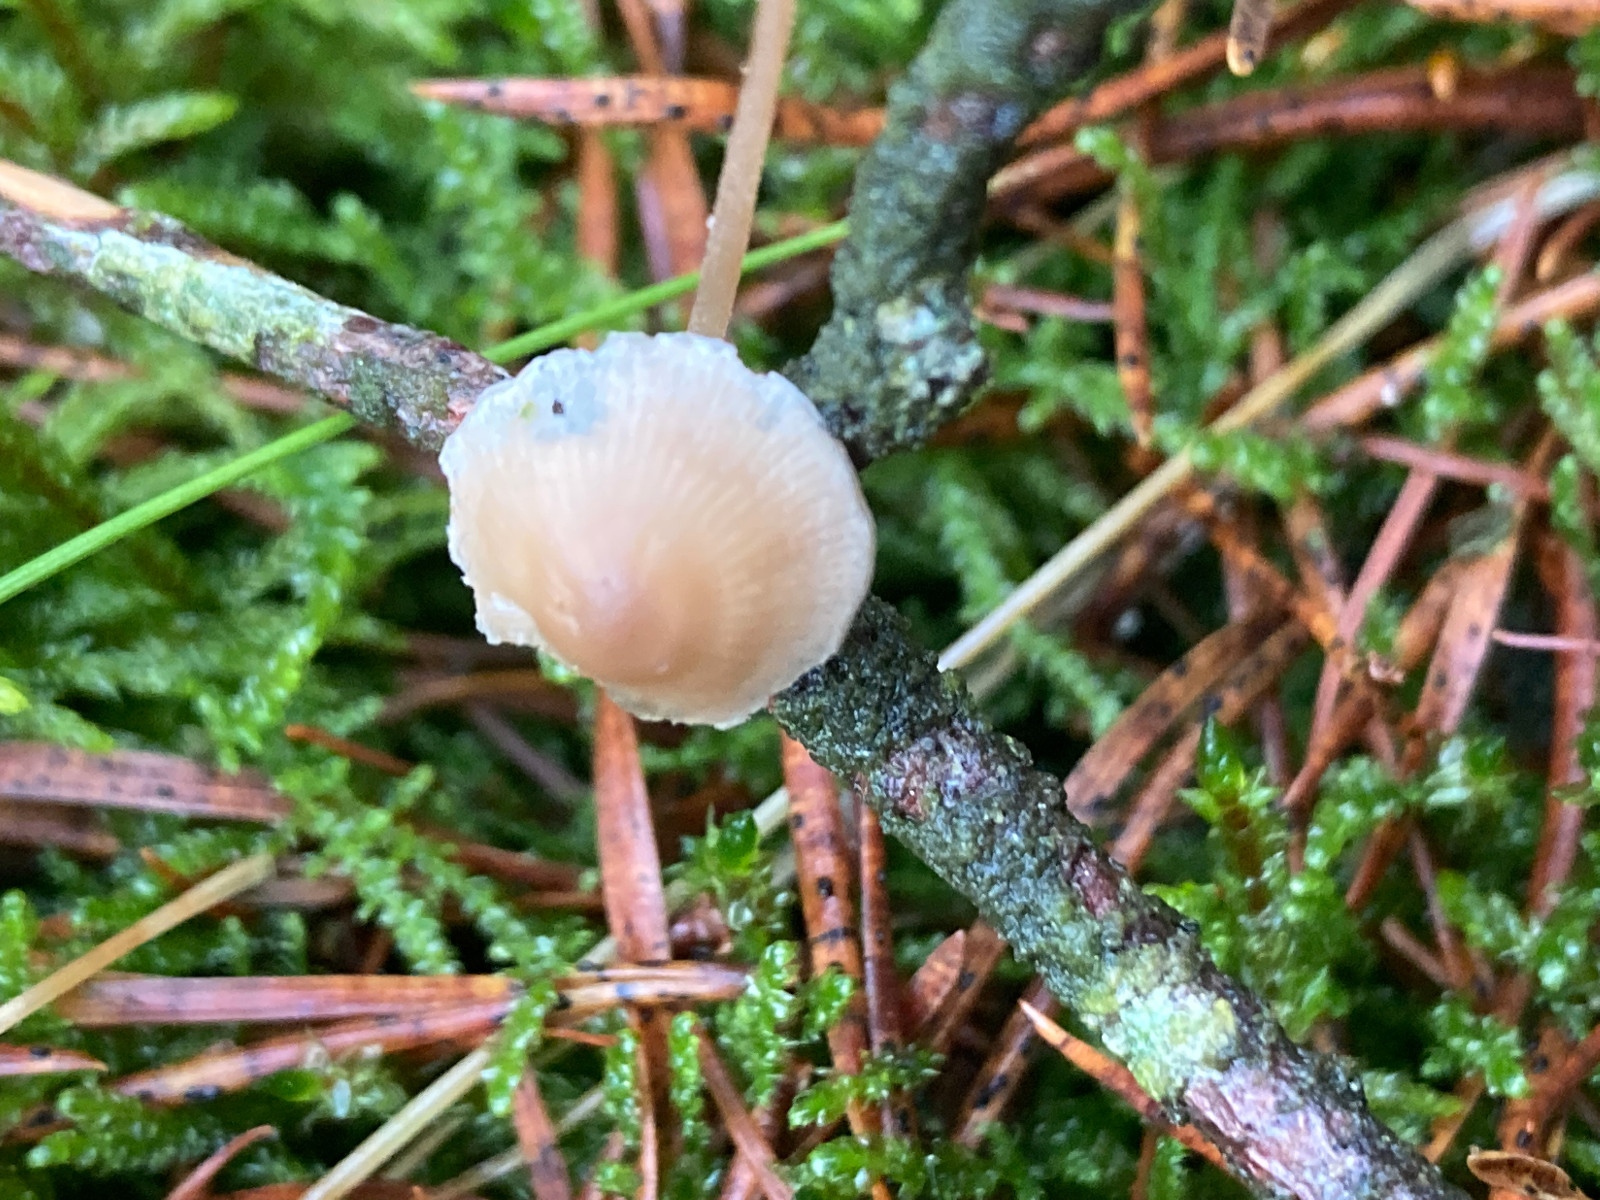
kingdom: Fungi
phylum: Basidiomycota
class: Agaricomycetes
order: Agaricales
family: Mycenaceae
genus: Mycena
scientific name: Mycena
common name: huesvamp
